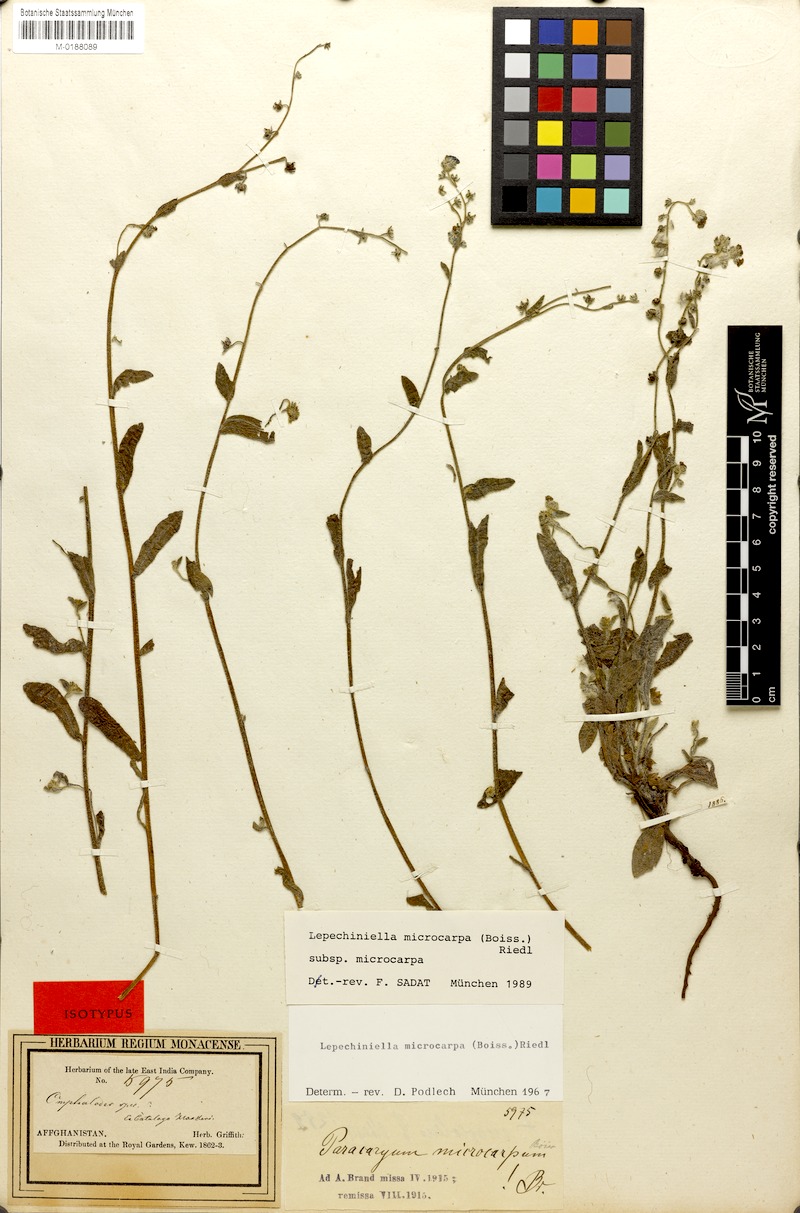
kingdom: Plantae
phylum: Tracheophyta
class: Magnoliopsida
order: Boraginales
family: Boraginaceae
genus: Lepechiniella
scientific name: Lepechiniella microcarpa
